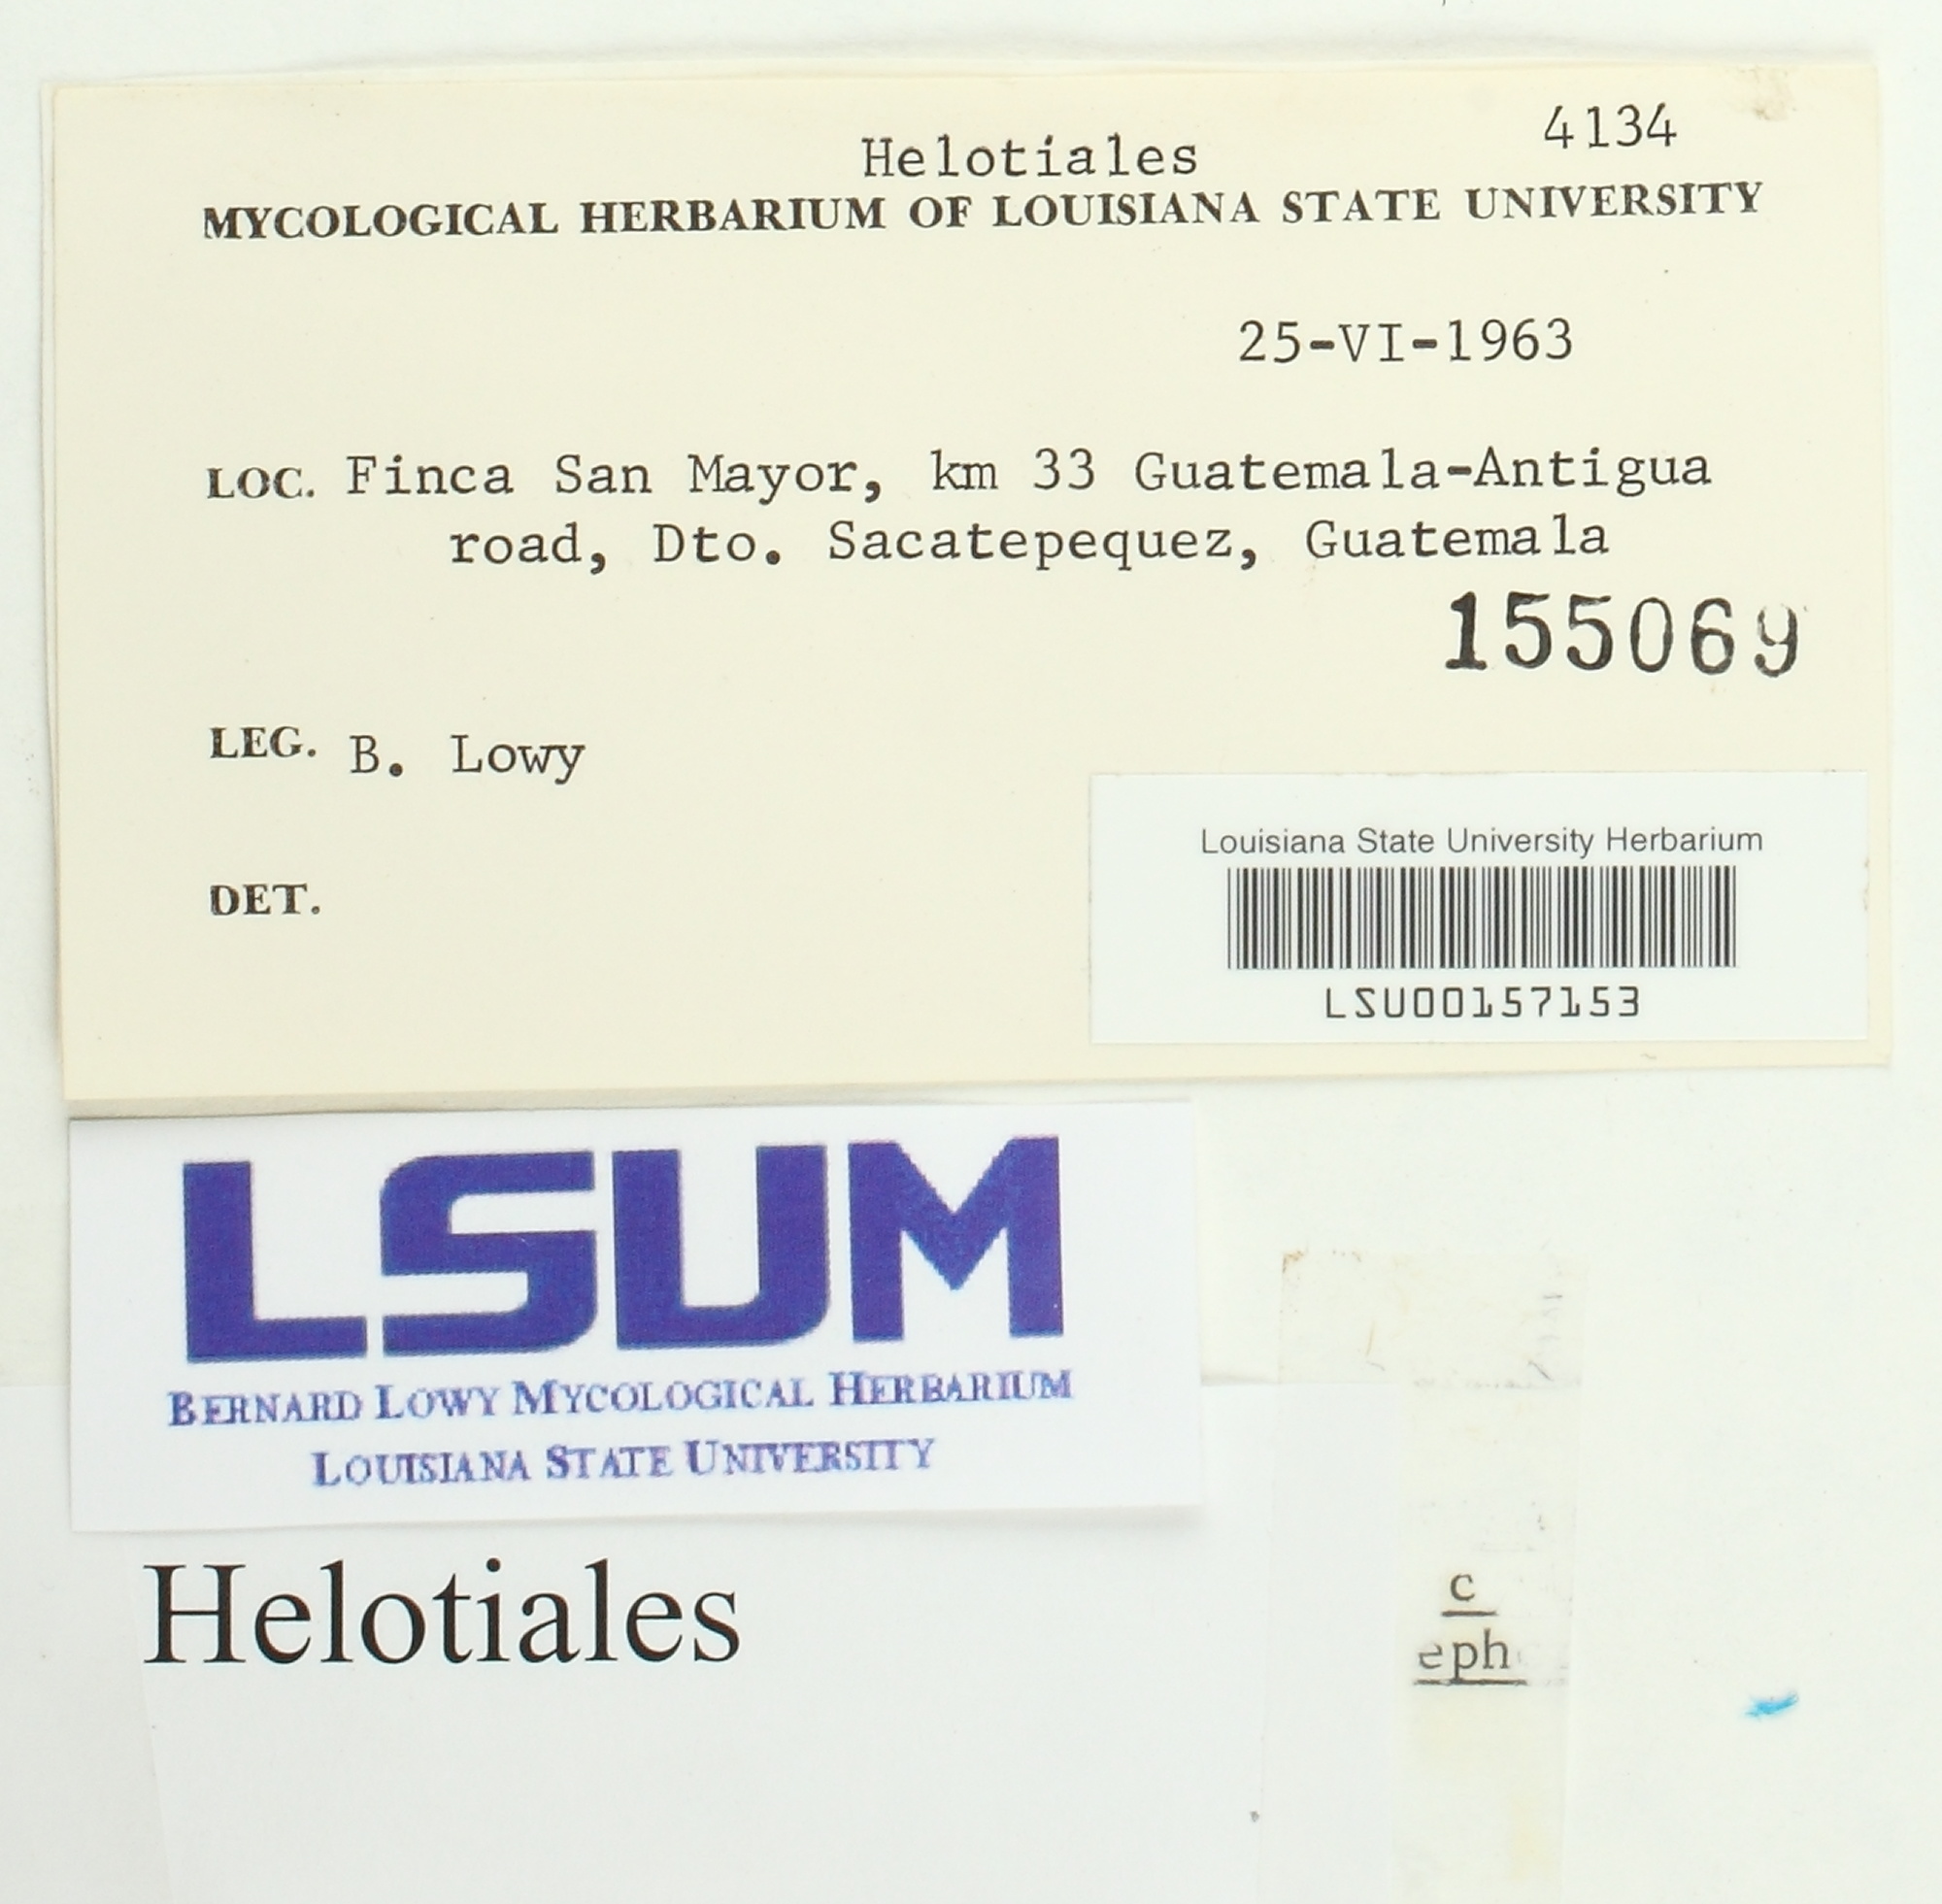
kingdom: Fungi
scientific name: Fungi
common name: Fungi
